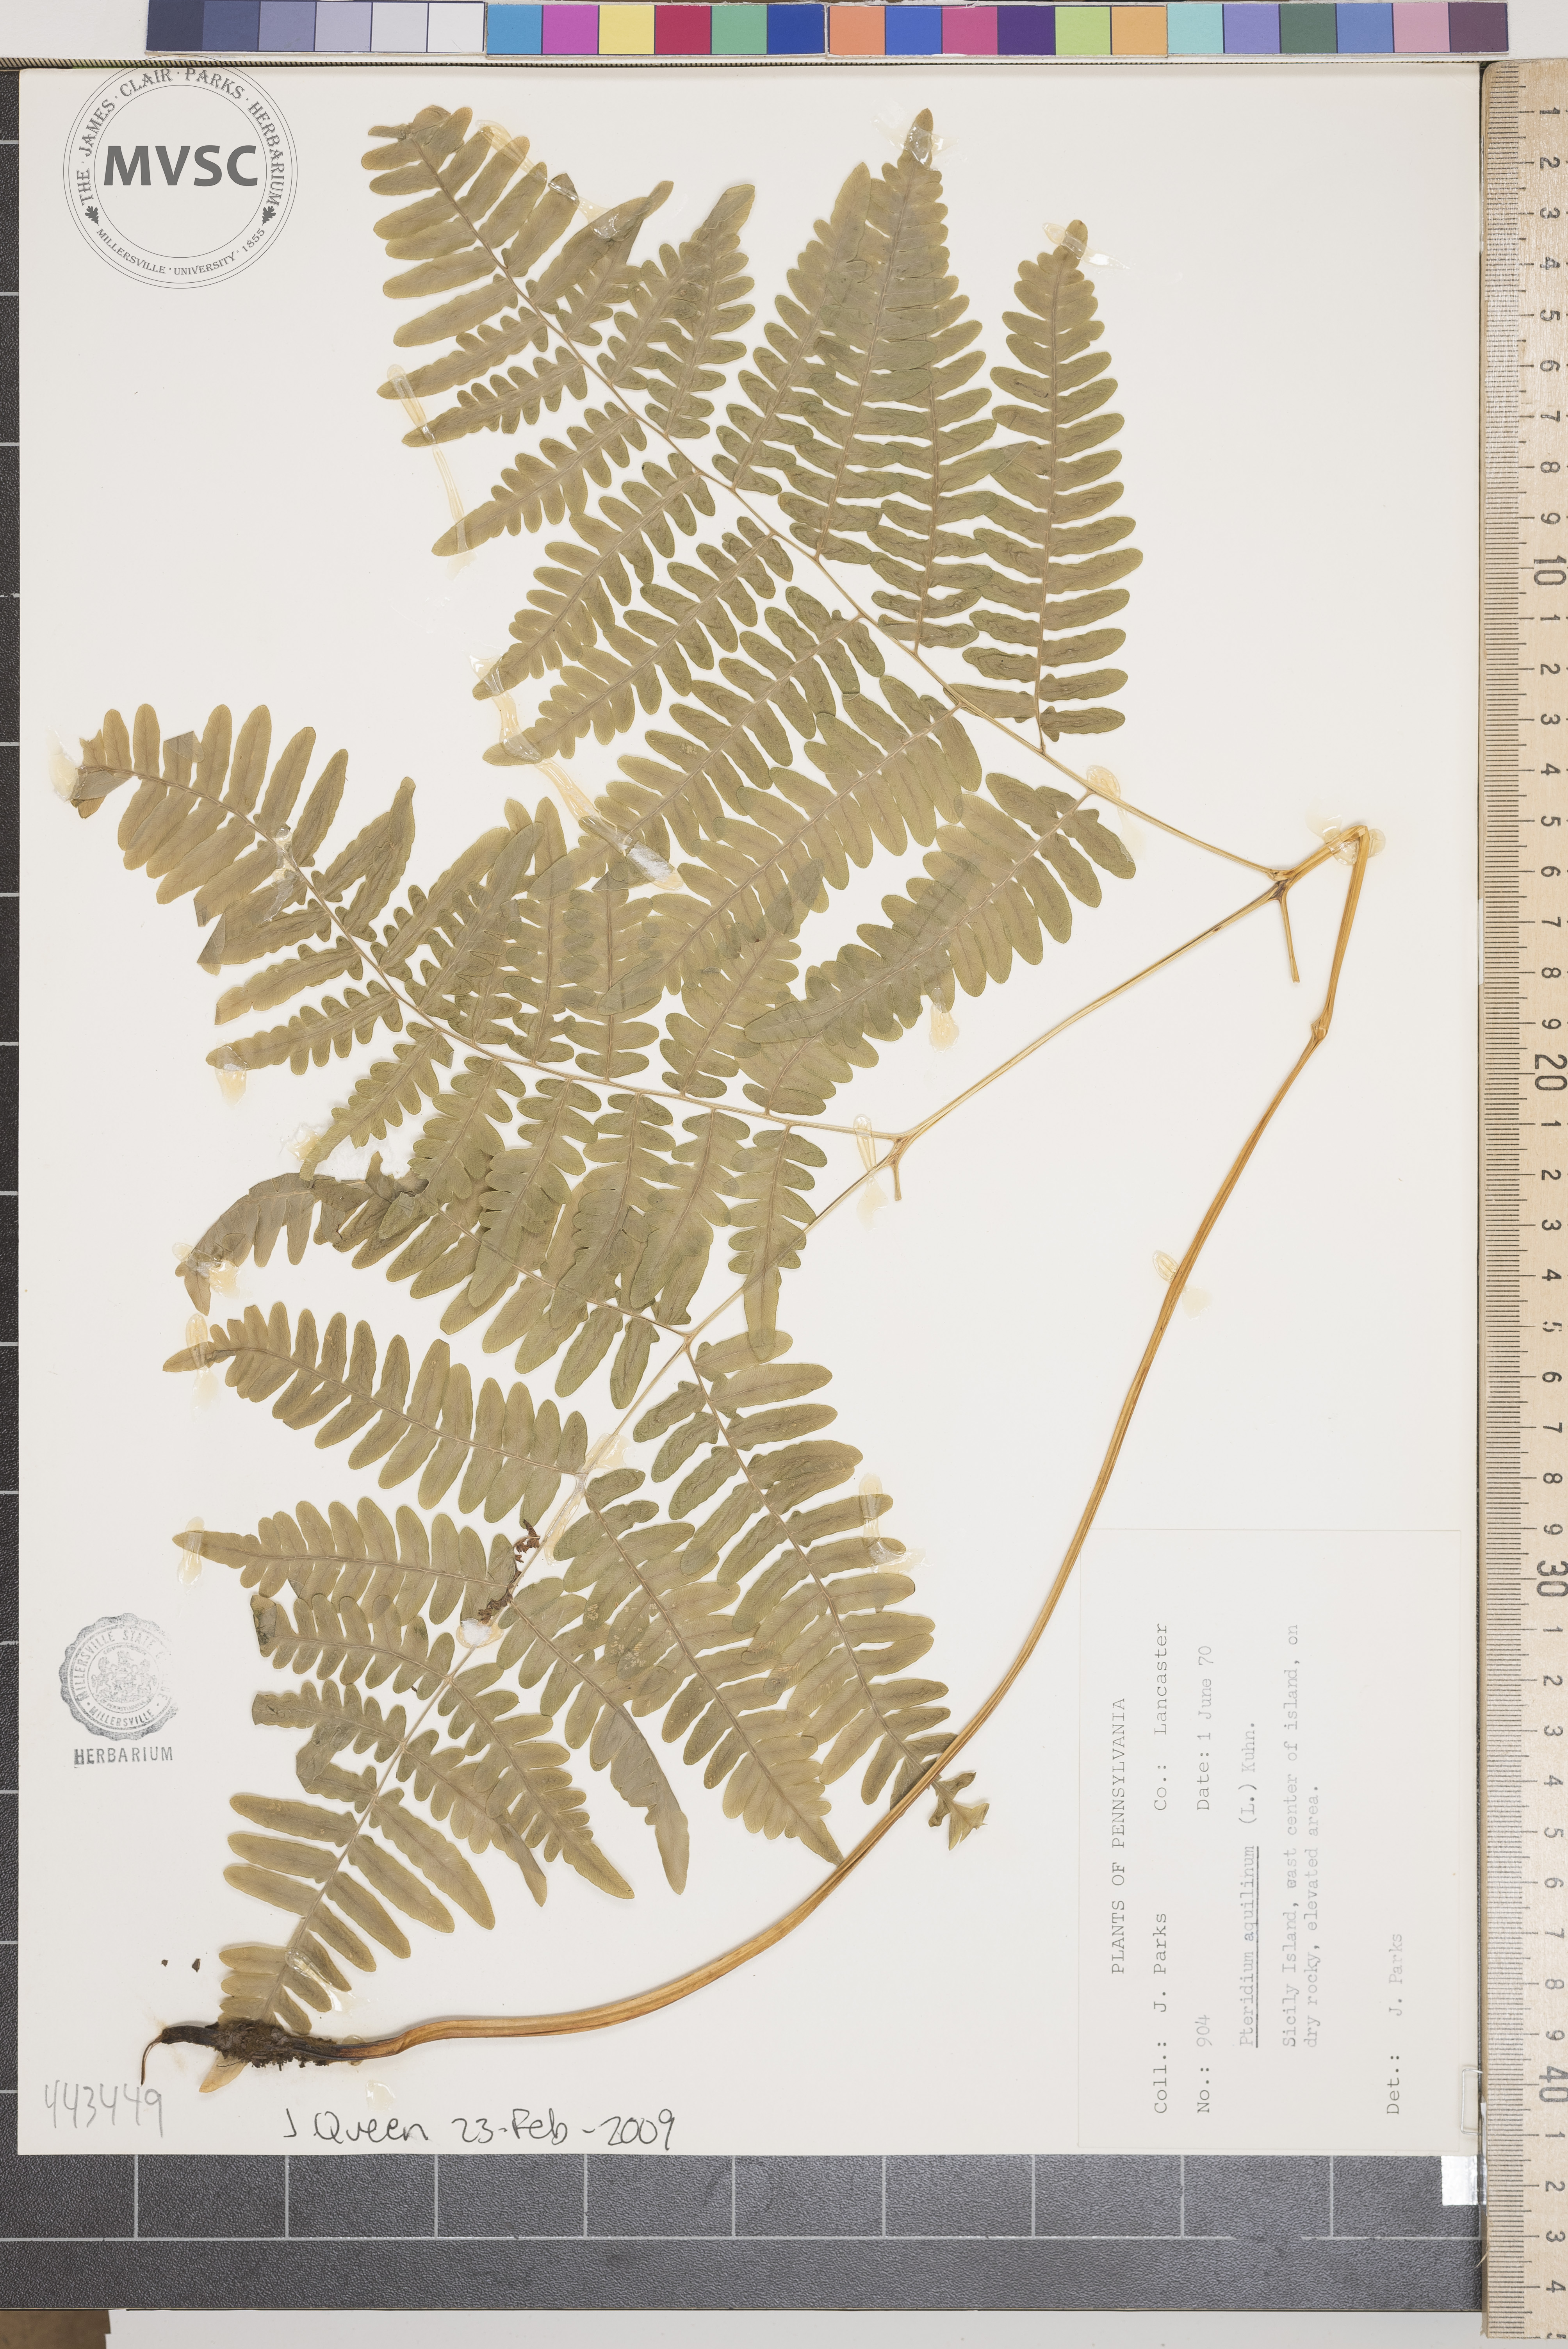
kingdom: Plantae
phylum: Tracheophyta
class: Polypodiopsida
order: Polypodiales
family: Dennstaedtiaceae
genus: Pteridium
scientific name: Pteridium aquilinum
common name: Bracken
